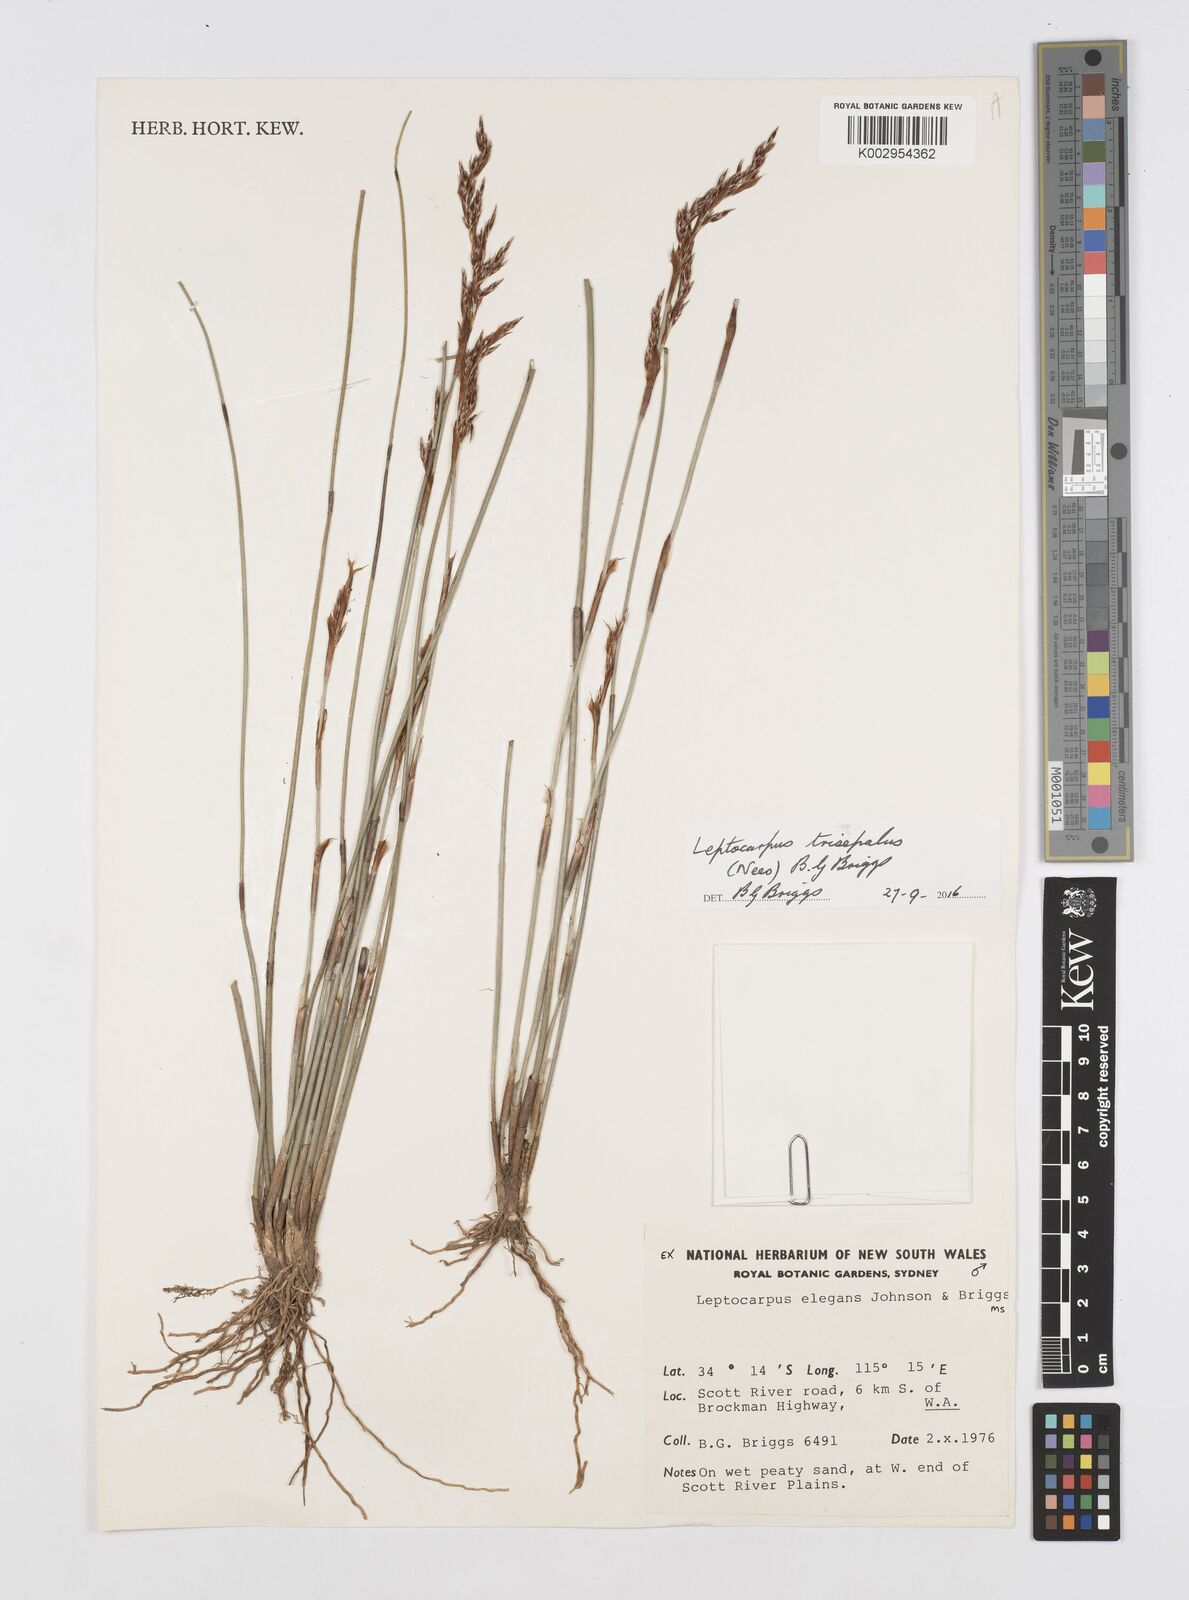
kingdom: Plantae
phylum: Tracheophyta
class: Liliopsida
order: Poales
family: Restionaceae
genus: Leptocarpus
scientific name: Leptocarpus trisepalus
